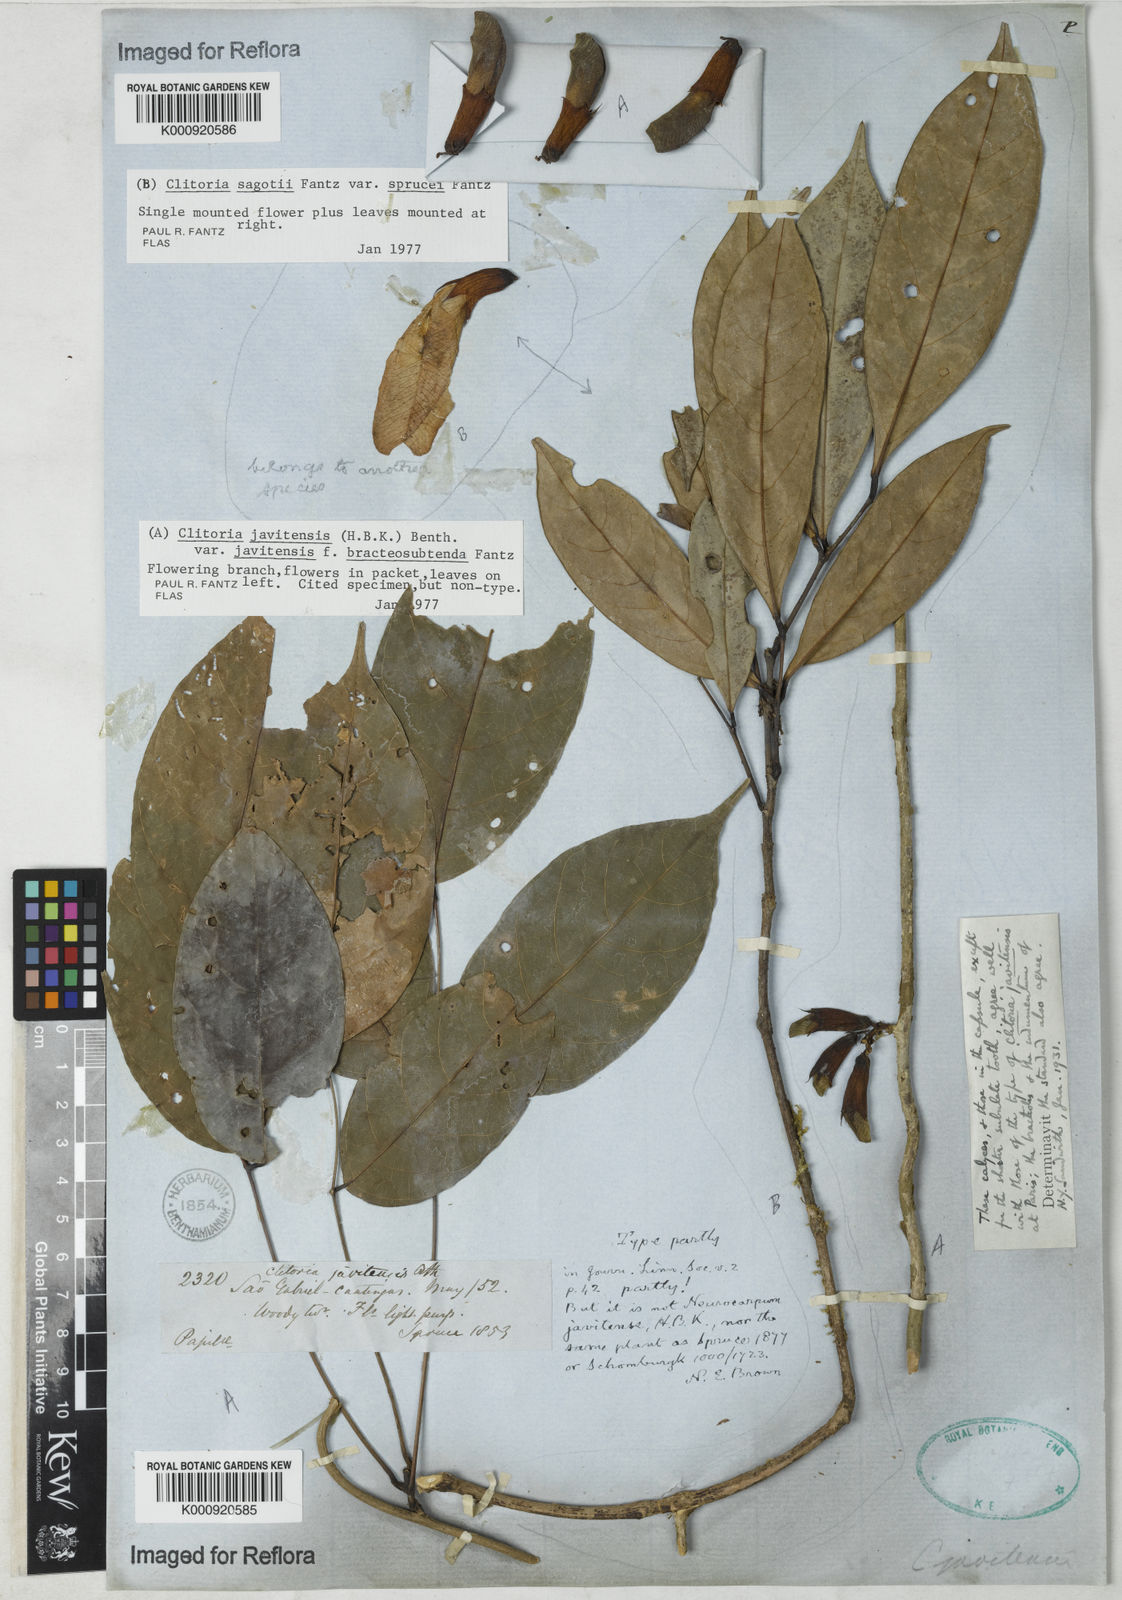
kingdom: Plantae
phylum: Tracheophyta
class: Magnoliopsida
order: Fabales
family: Fabaceae
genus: Clitoria
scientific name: Clitoria javitensis
